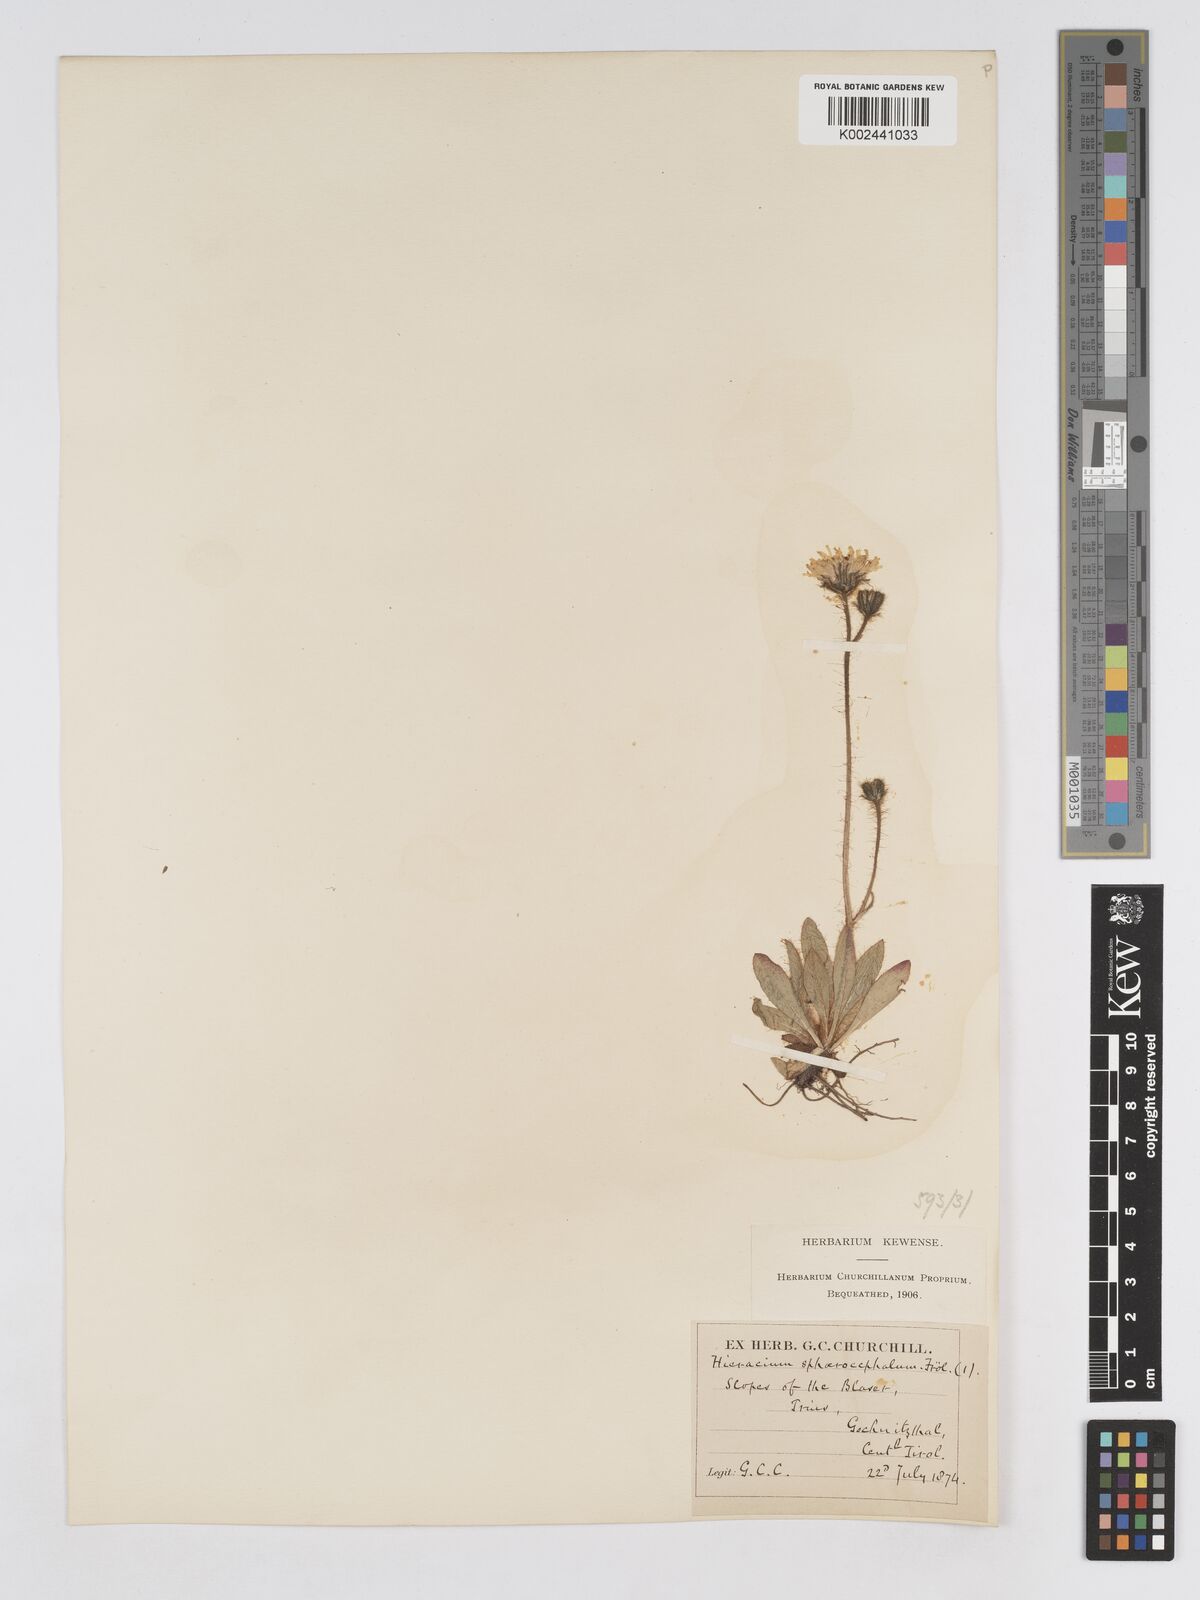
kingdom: Plantae
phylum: Tracheophyta
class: Magnoliopsida
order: Asterales
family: Asteraceae
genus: Pilosella
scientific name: Pilosella sphaerocephala
